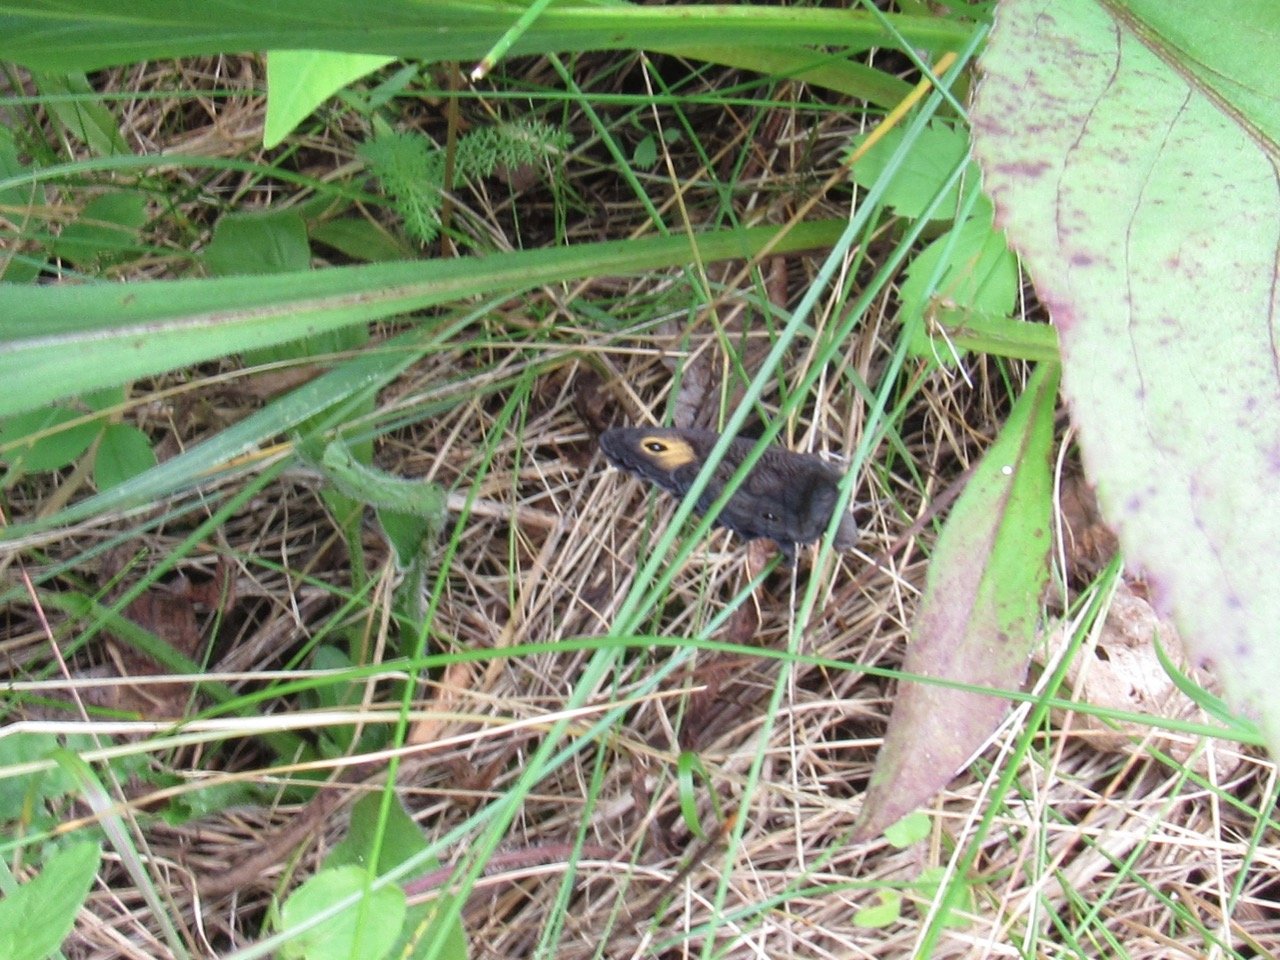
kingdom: Animalia
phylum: Arthropoda
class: Insecta
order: Lepidoptera
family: Nymphalidae
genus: Cercyonis
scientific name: Cercyonis pegala
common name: Common Wood-Nymph
